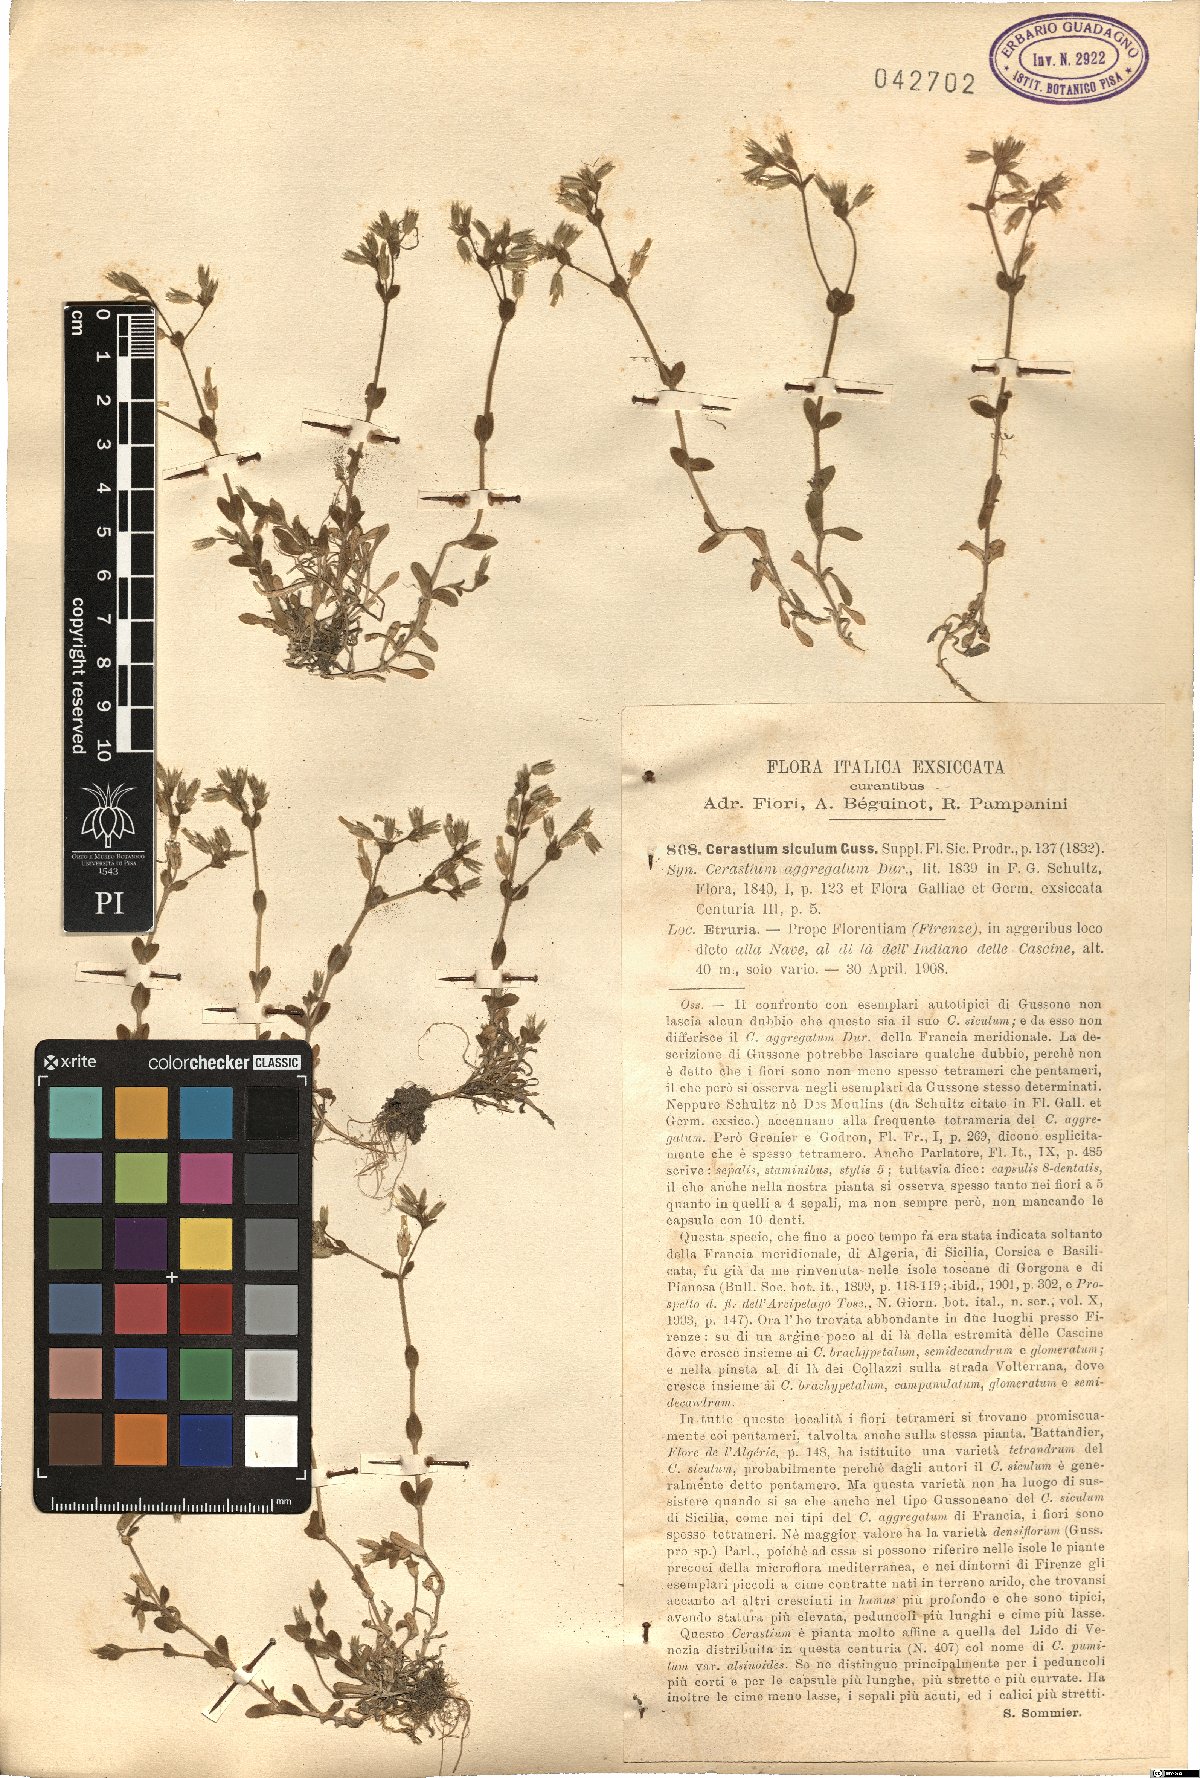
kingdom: Plantae
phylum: Tracheophyta
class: Magnoliopsida
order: Caryophyllales
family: Caryophyllaceae
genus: Cerastium
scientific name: Cerastium siculum
